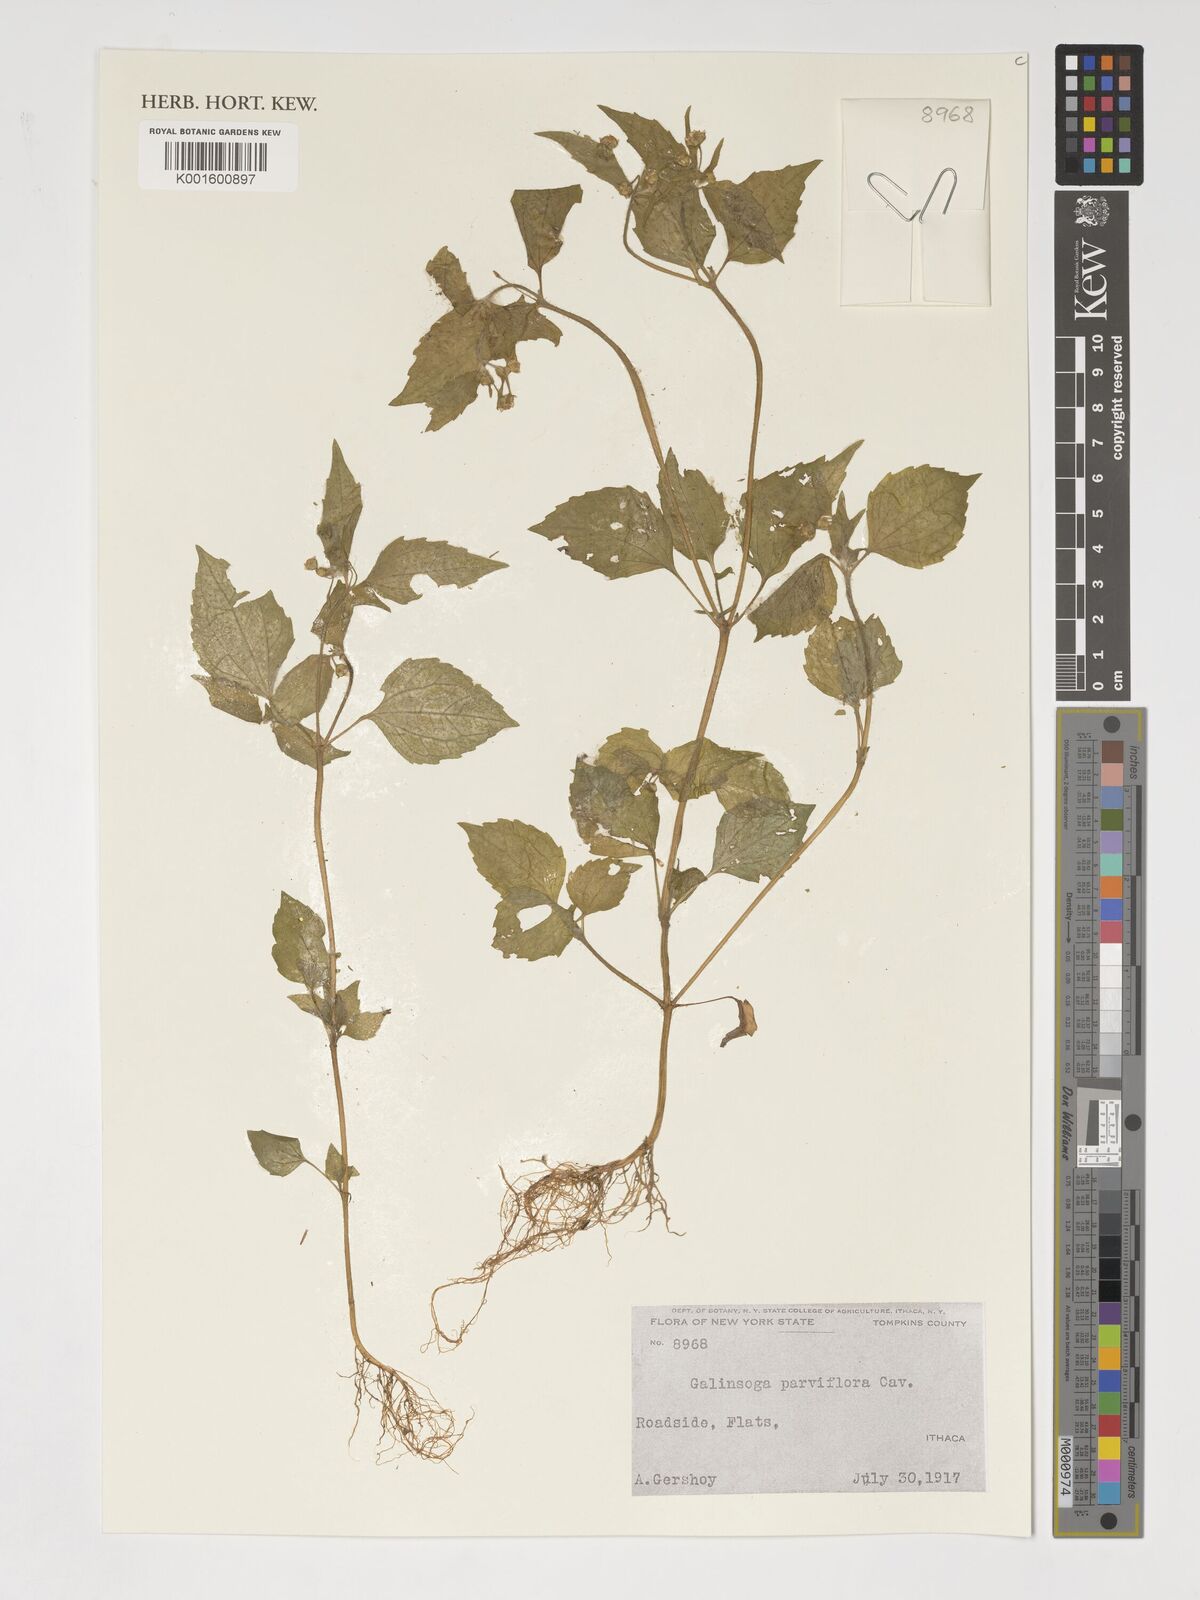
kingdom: Plantae
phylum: Tracheophyta
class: Magnoliopsida
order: Asterales
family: Asteraceae
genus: Galinsoga
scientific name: Galinsoga parviflora
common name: Gallant soldier
